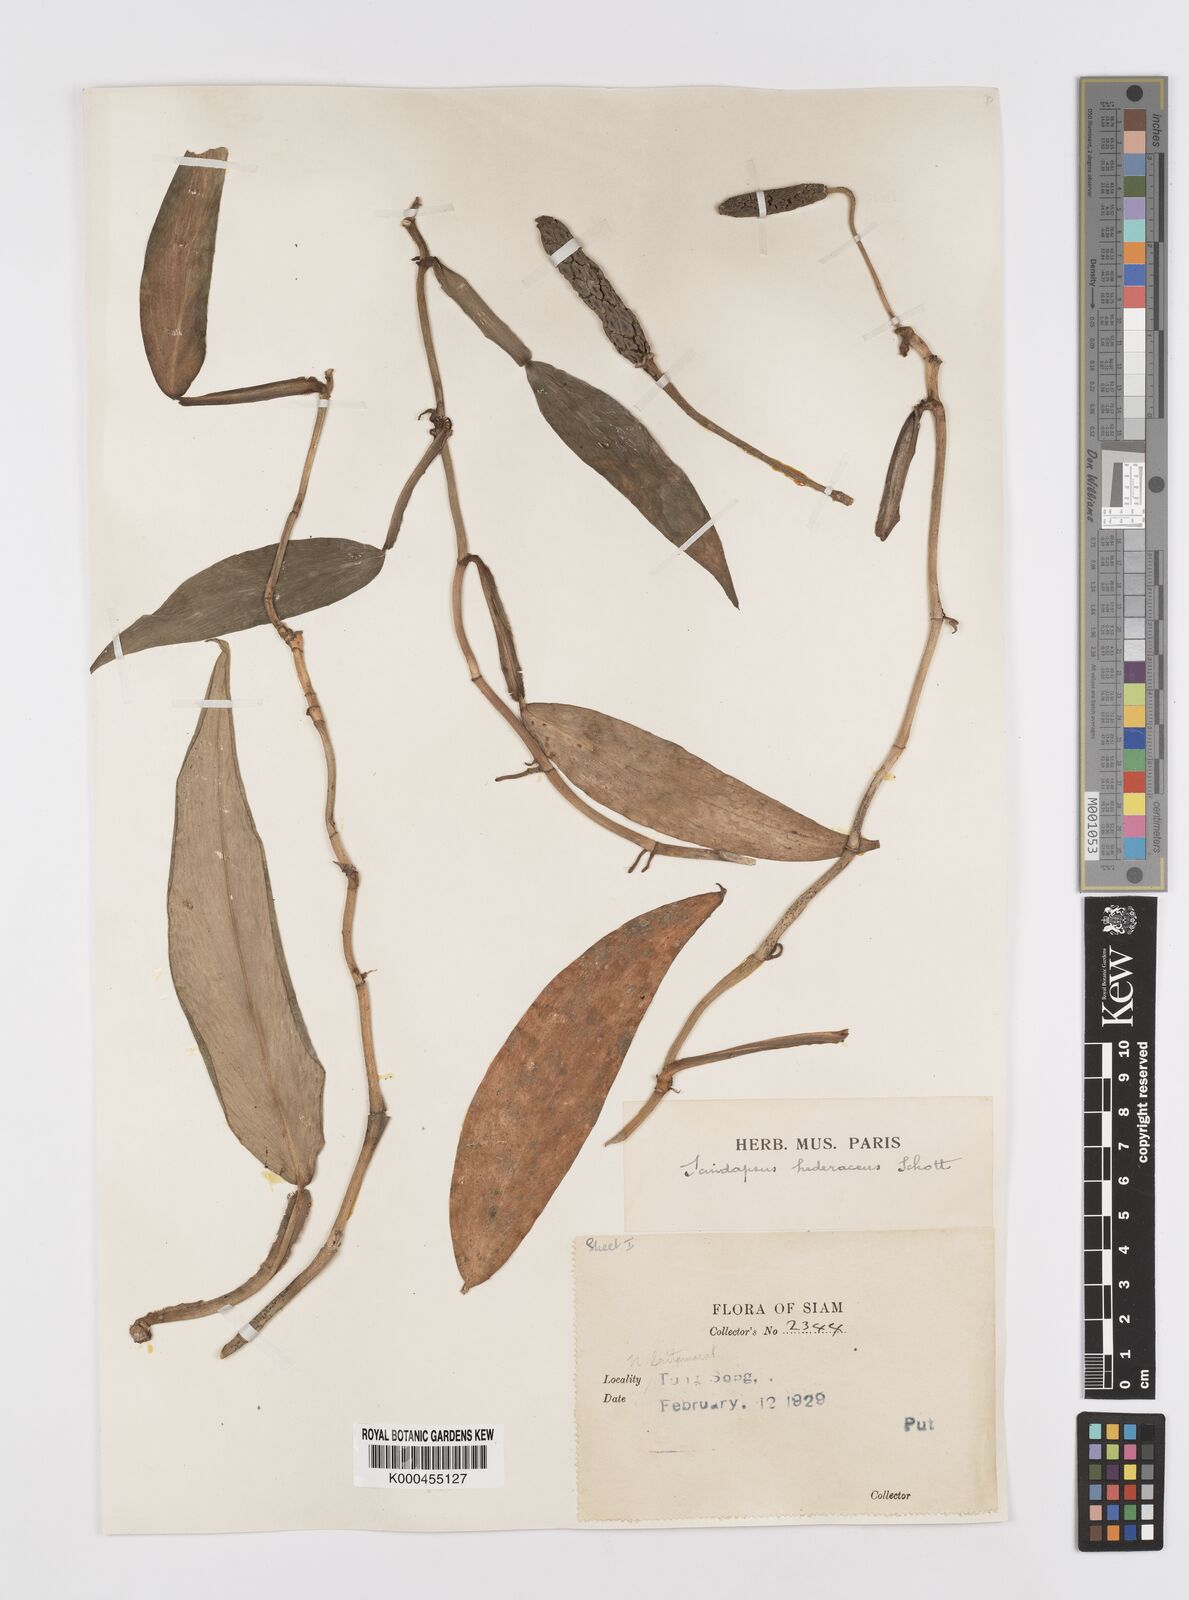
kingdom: Plantae
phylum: Tracheophyta
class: Liliopsida
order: Alismatales
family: Araceae
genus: Scindapsus
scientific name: Scindapsus hederaceus
